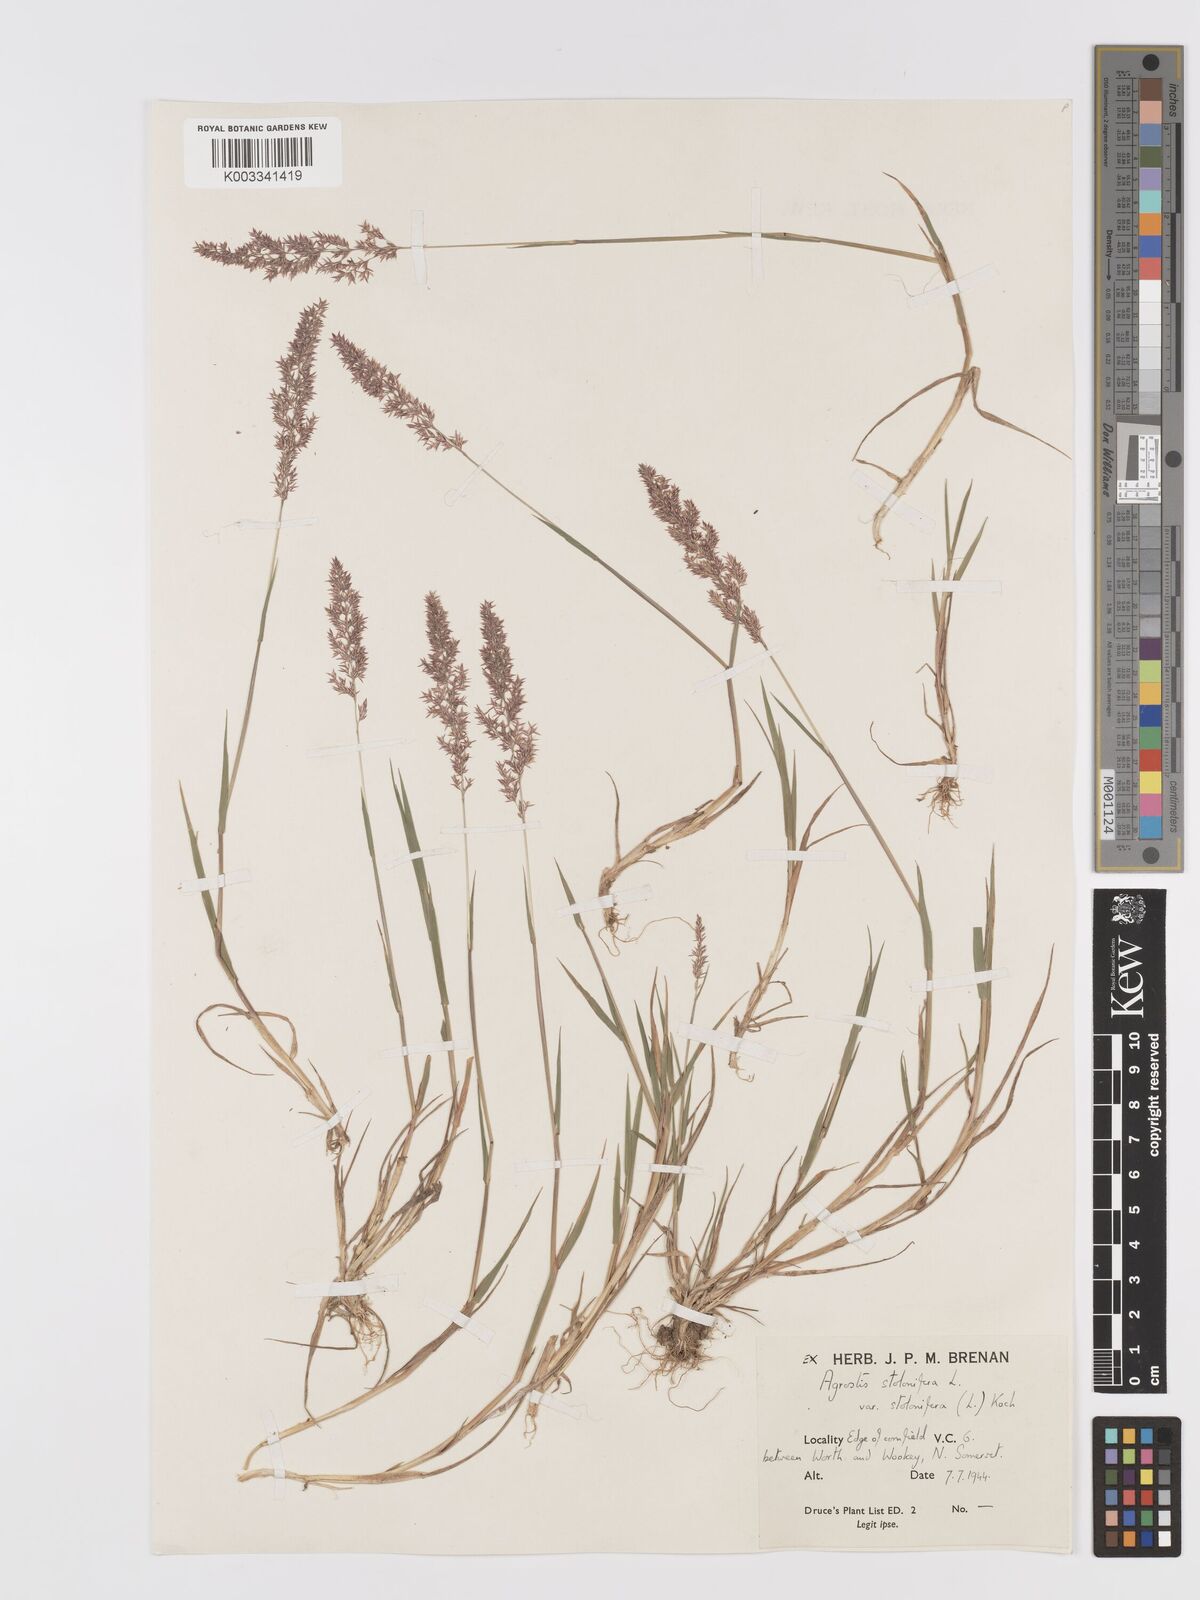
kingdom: Plantae
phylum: Tracheophyta
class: Liliopsida
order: Poales
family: Poaceae
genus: Agrostis
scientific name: Agrostis stolonifera
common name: Creeping bentgrass
